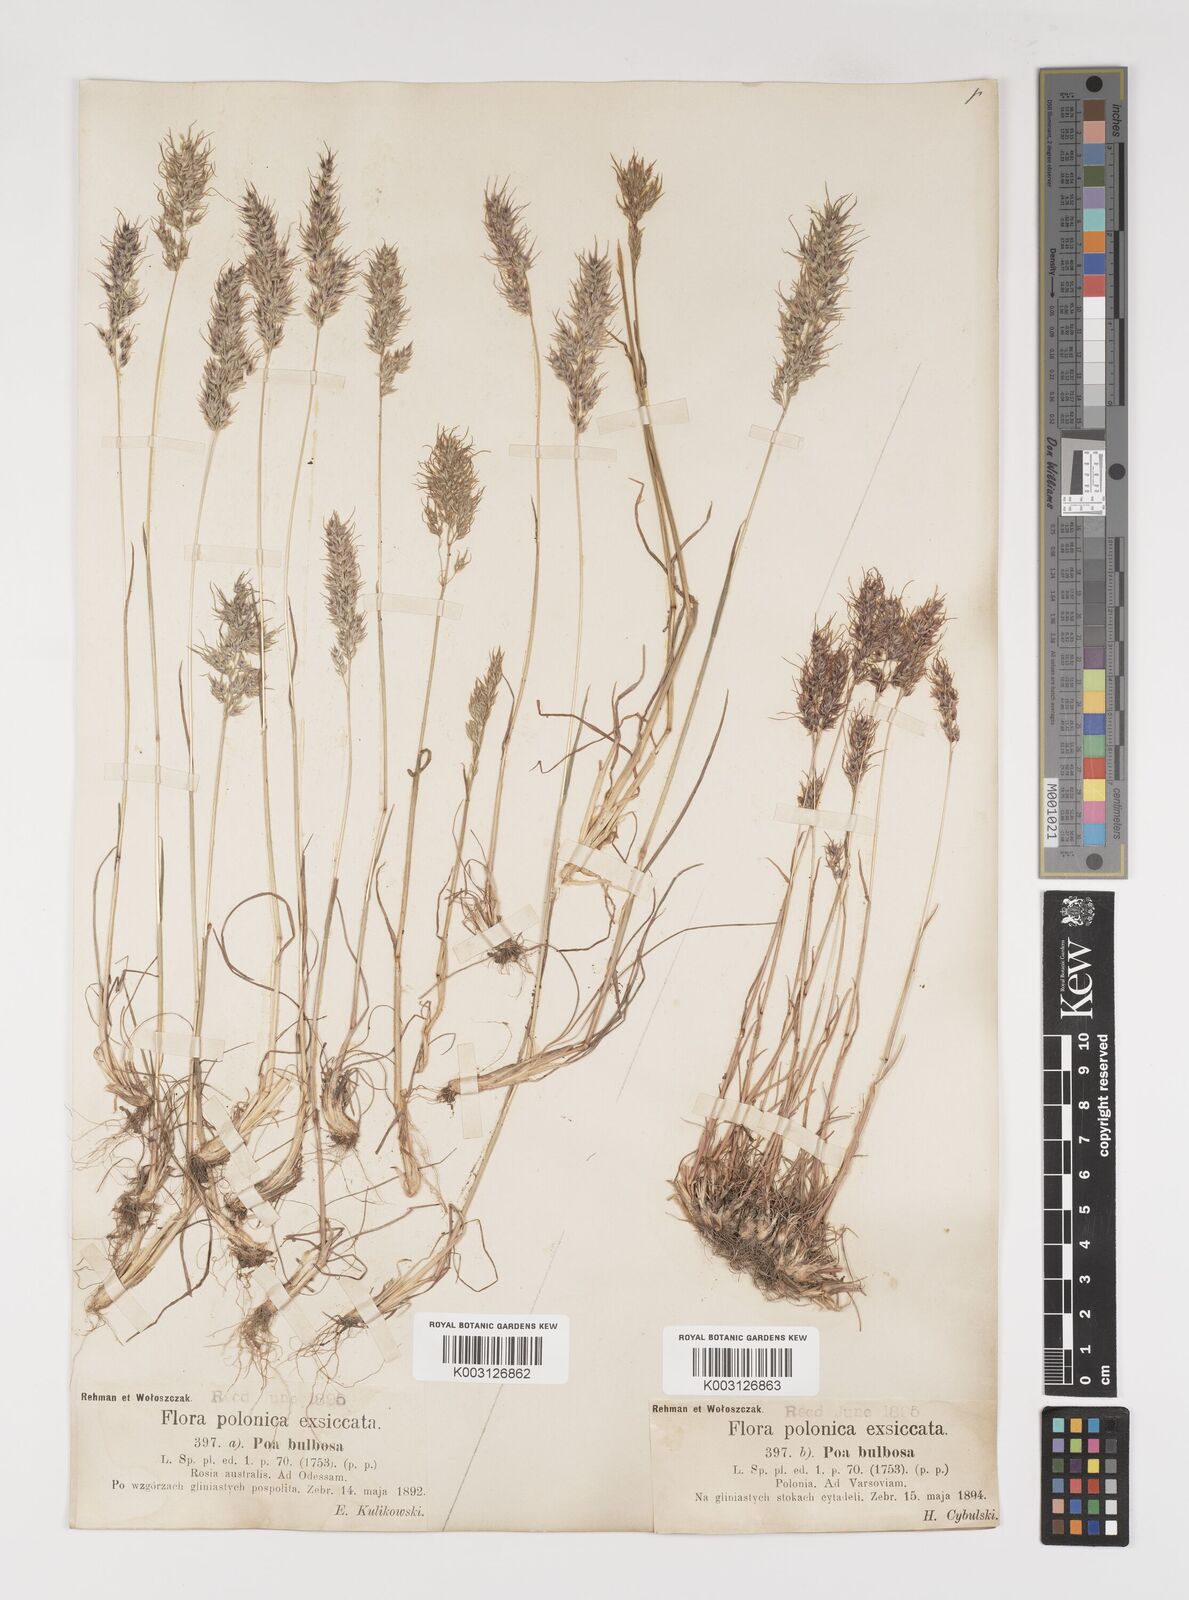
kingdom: Plantae
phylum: Tracheophyta
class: Liliopsida
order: Poales
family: Poaceae
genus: Poa
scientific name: Poa bulbosa
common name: Bulbous bluegrass
